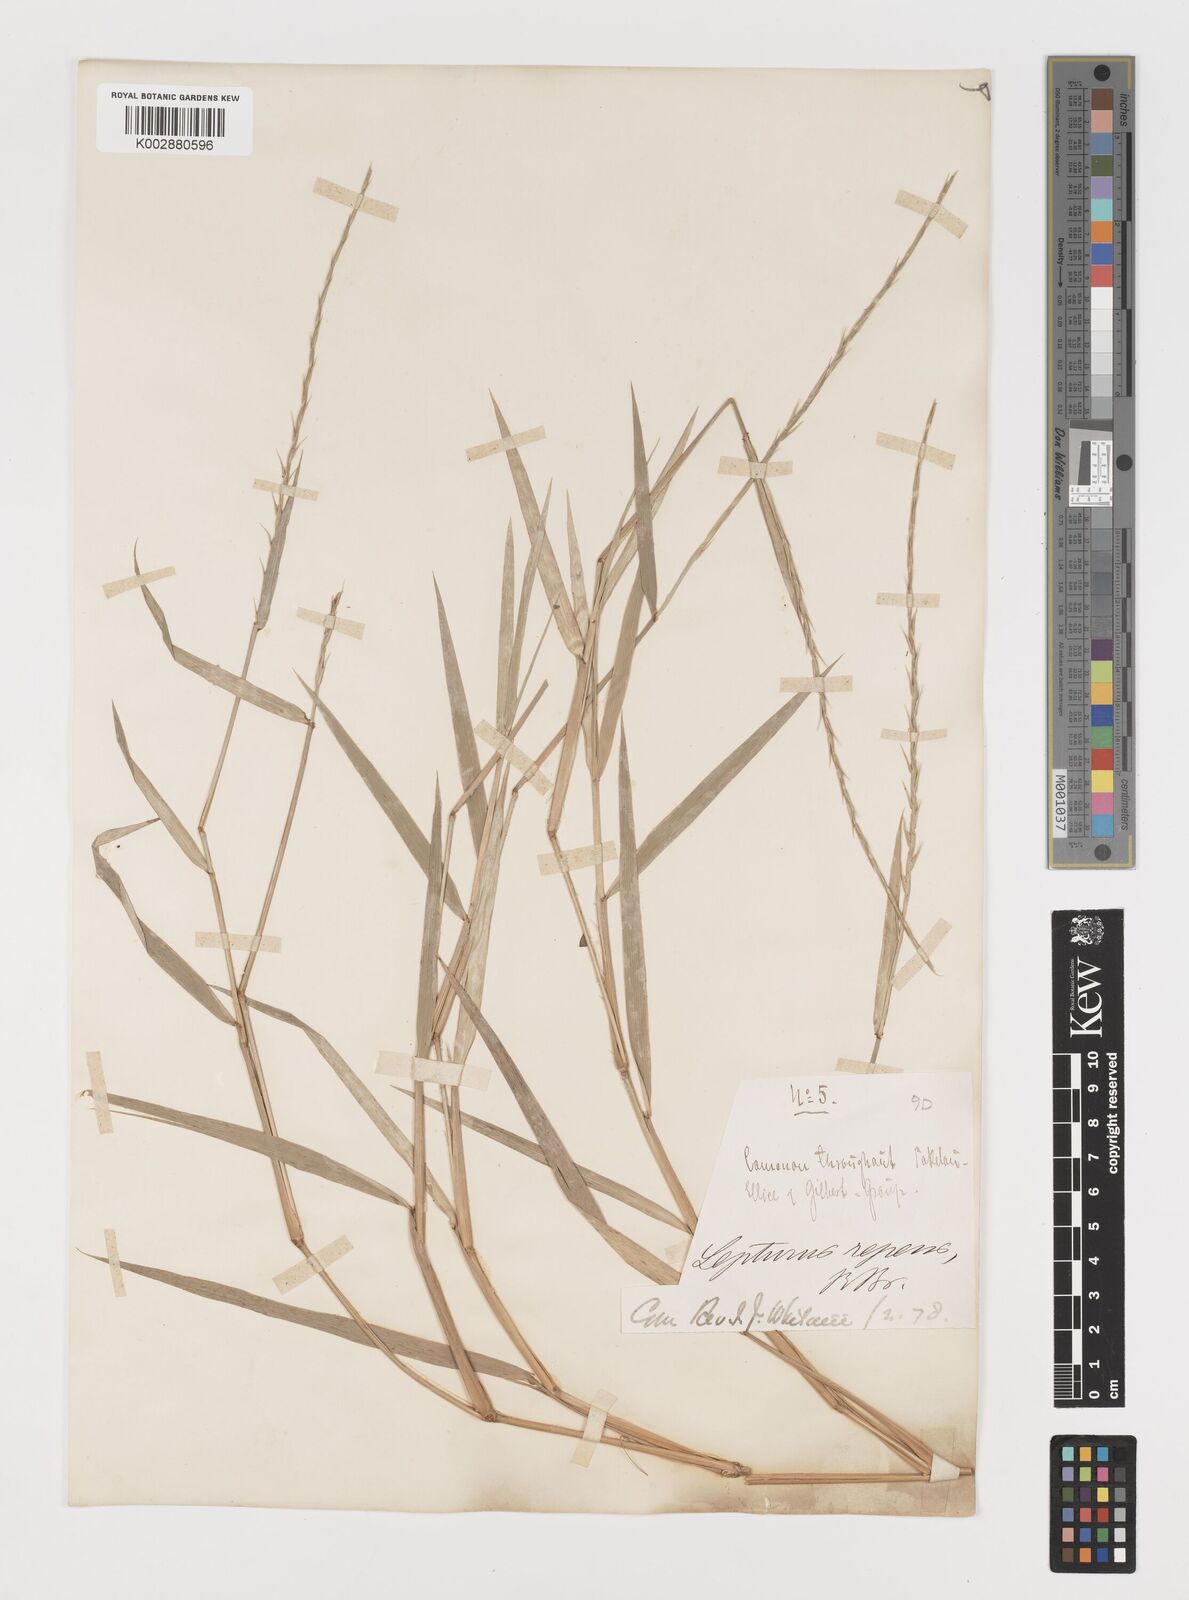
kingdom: Plantae
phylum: Tracheophyta
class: Liliopsida
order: Poales
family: Poaceae
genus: Lepturus
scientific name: Lepturus repens
